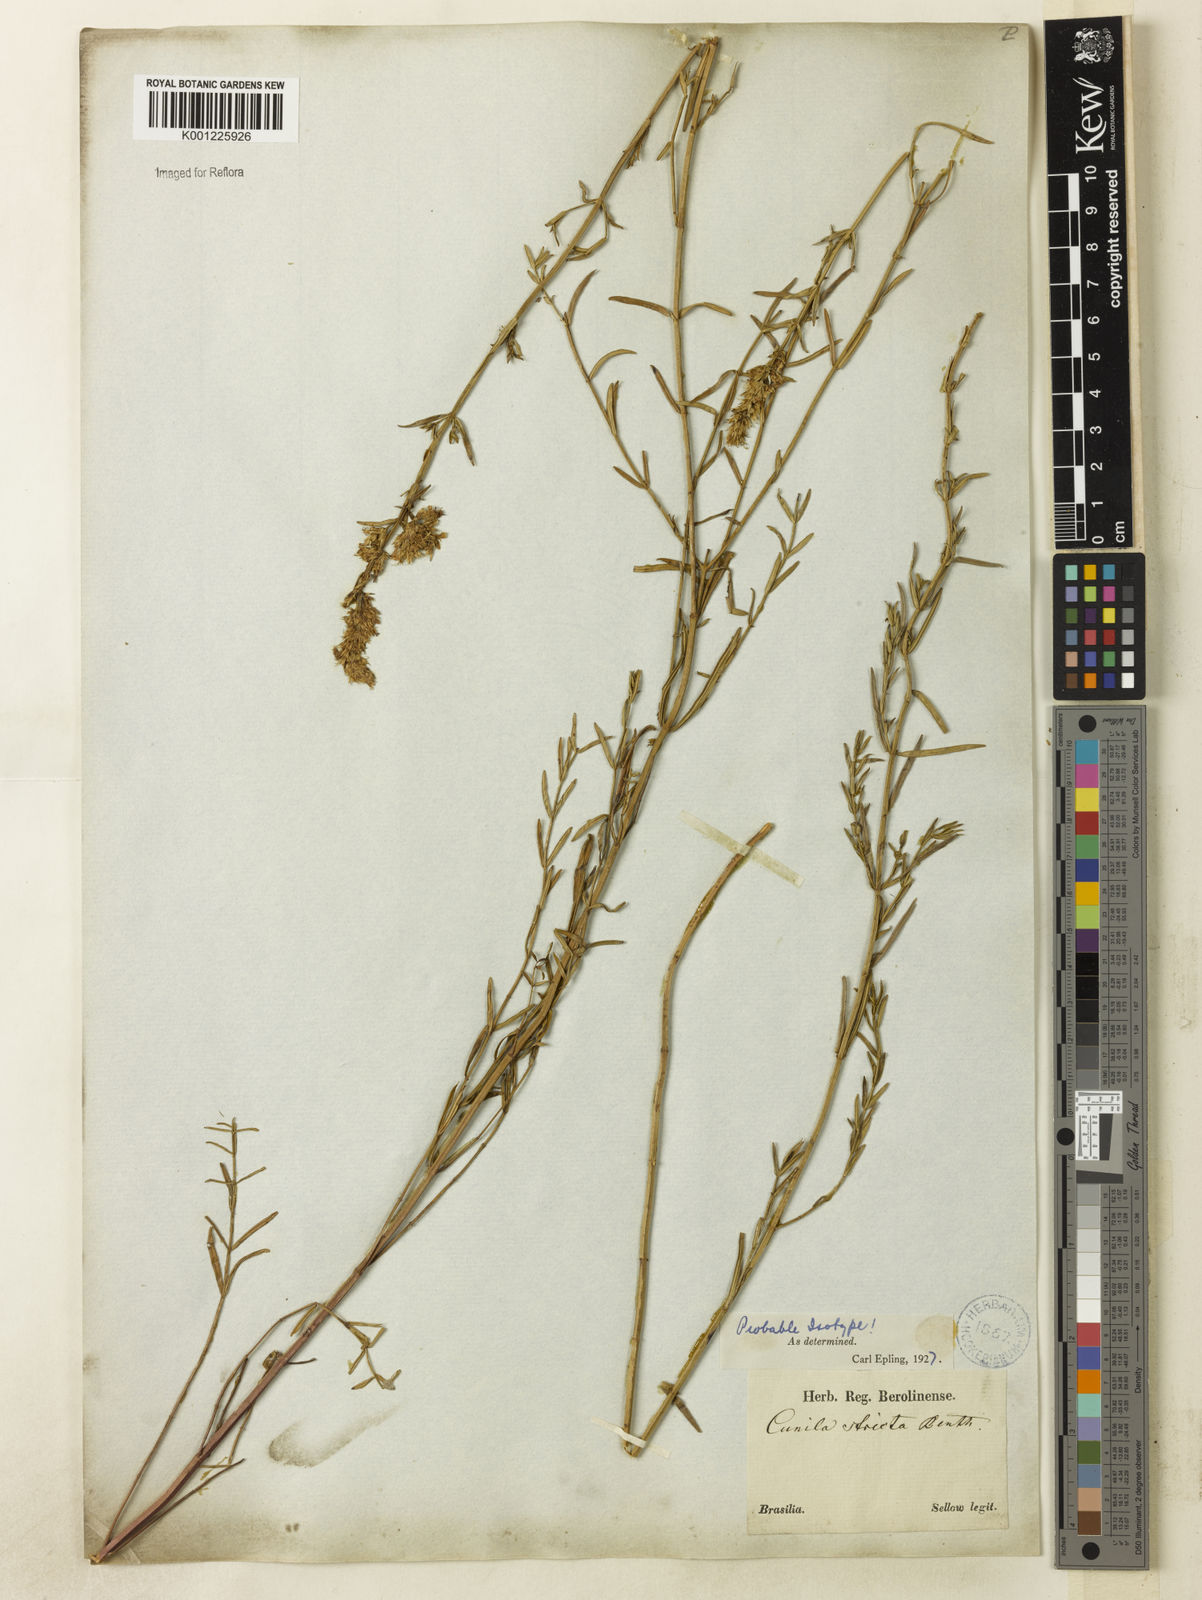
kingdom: Plantae
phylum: Tracheophyta
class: Magnoliopsida
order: Lamiales
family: Lamiaceae
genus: Rhabdocaulon
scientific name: Rhabdocaulon strictum
